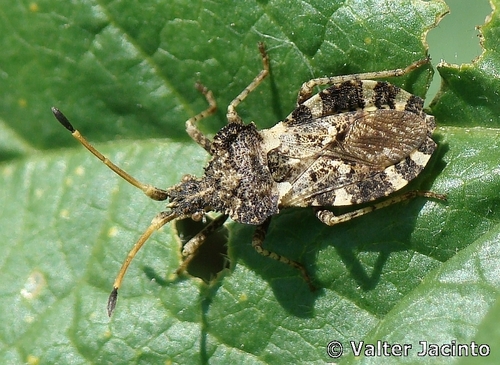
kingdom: Animalia
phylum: Arthropoda
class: Insecta
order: Hemiptera
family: Coreidae
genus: Centrocoris
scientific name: Centrocoris variegatus
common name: Leaf-footed bug
